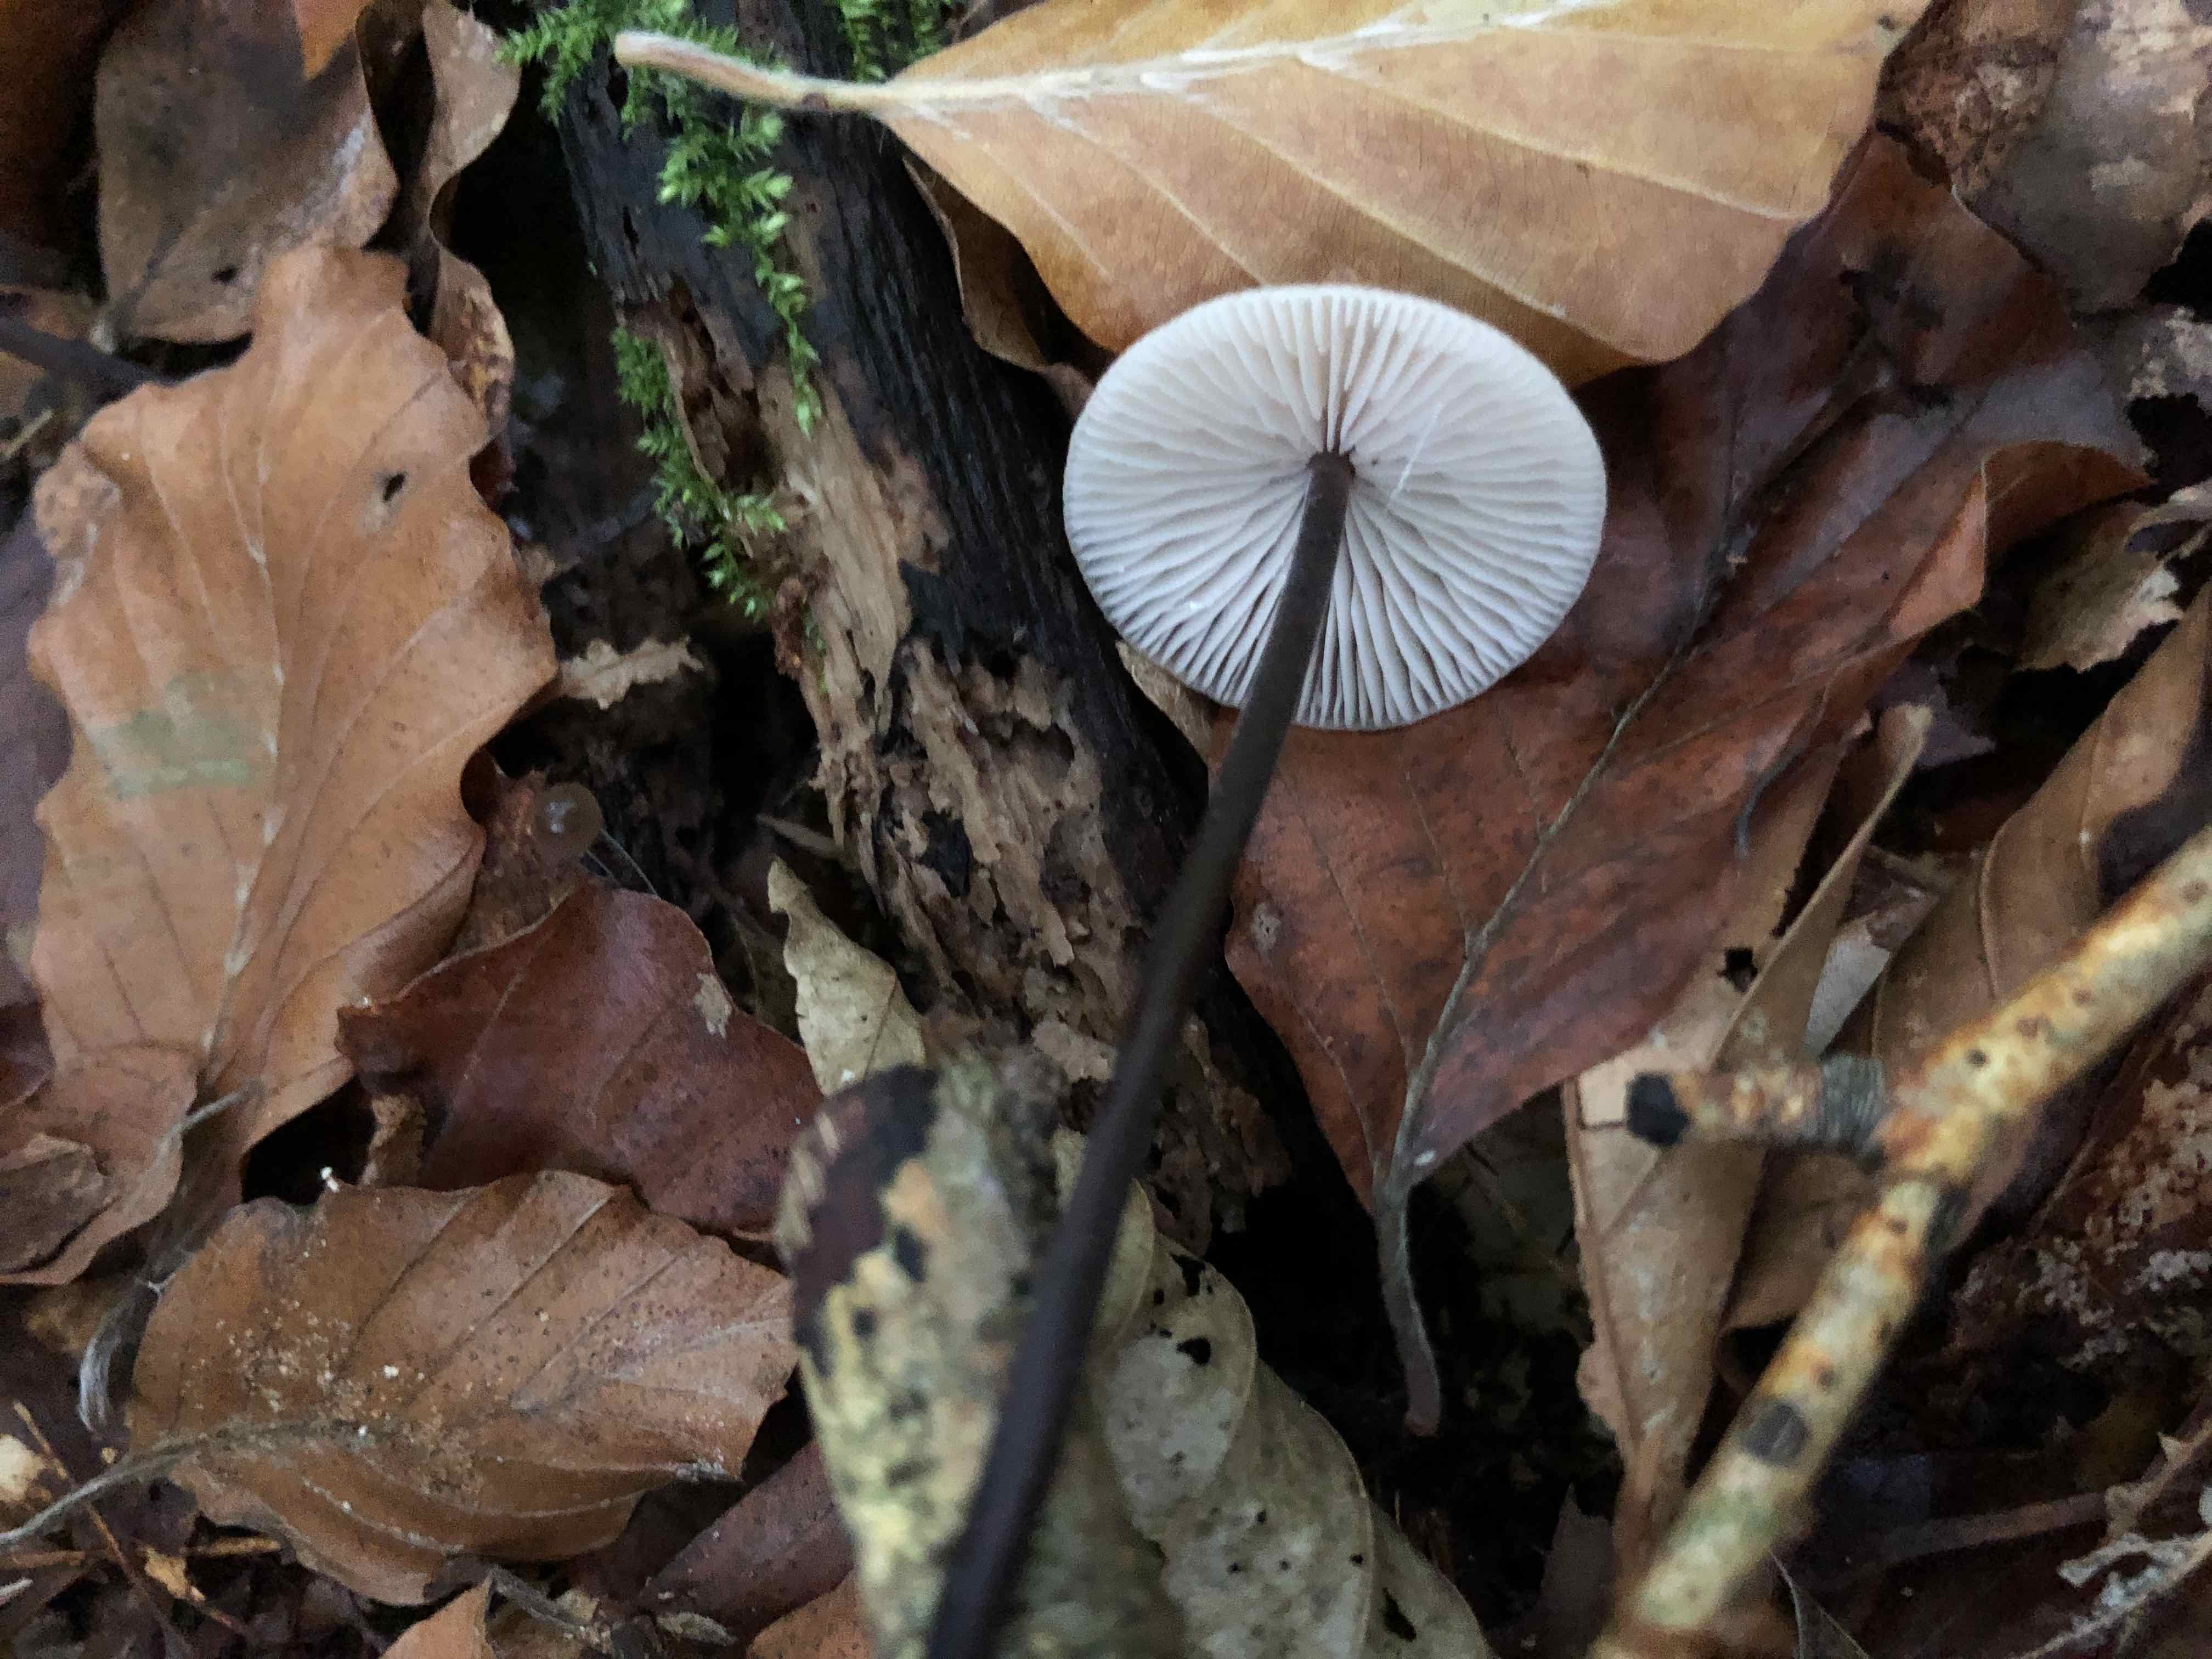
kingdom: Fungi
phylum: Basidiomycota
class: Agaricomycetes
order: Agaricales
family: Omphalotaceae
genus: Mycetinis
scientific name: Mycetinis alliaceus
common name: stor løghat
